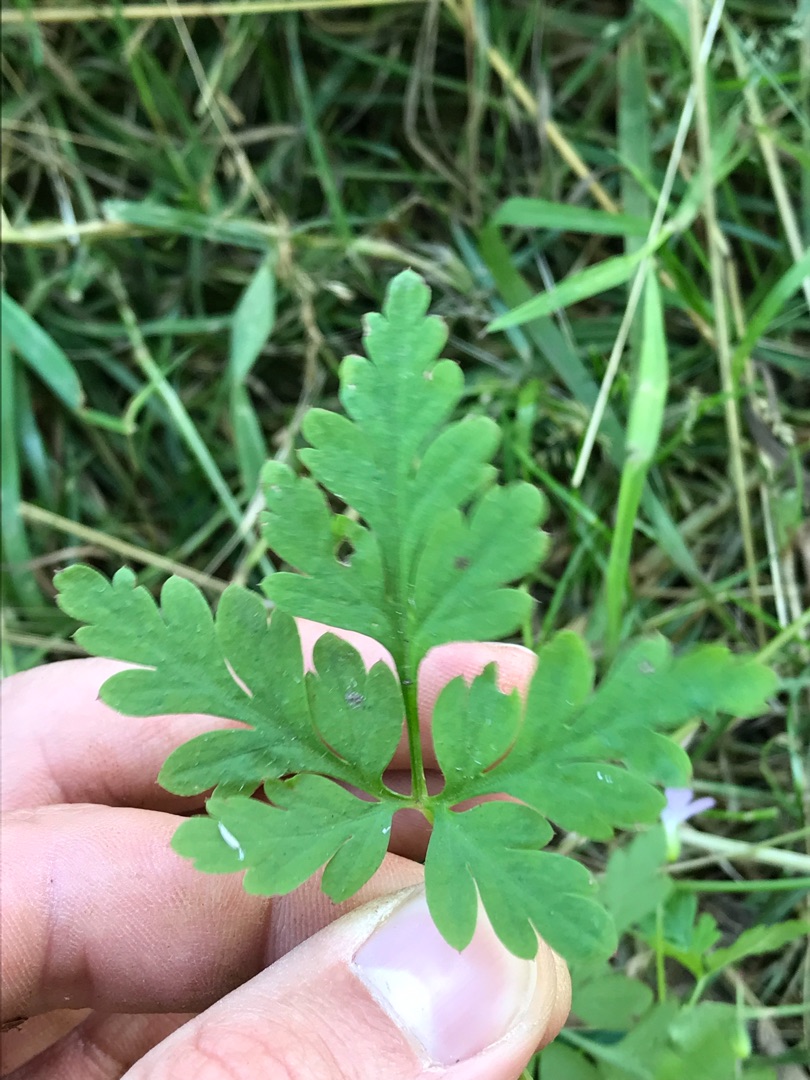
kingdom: Plantae
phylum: Tracheophyta
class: Magnoliopsida
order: Geraniales
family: Geraniaceae
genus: Geranium
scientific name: Geranium robertianum
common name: Stinkende storkenæb
